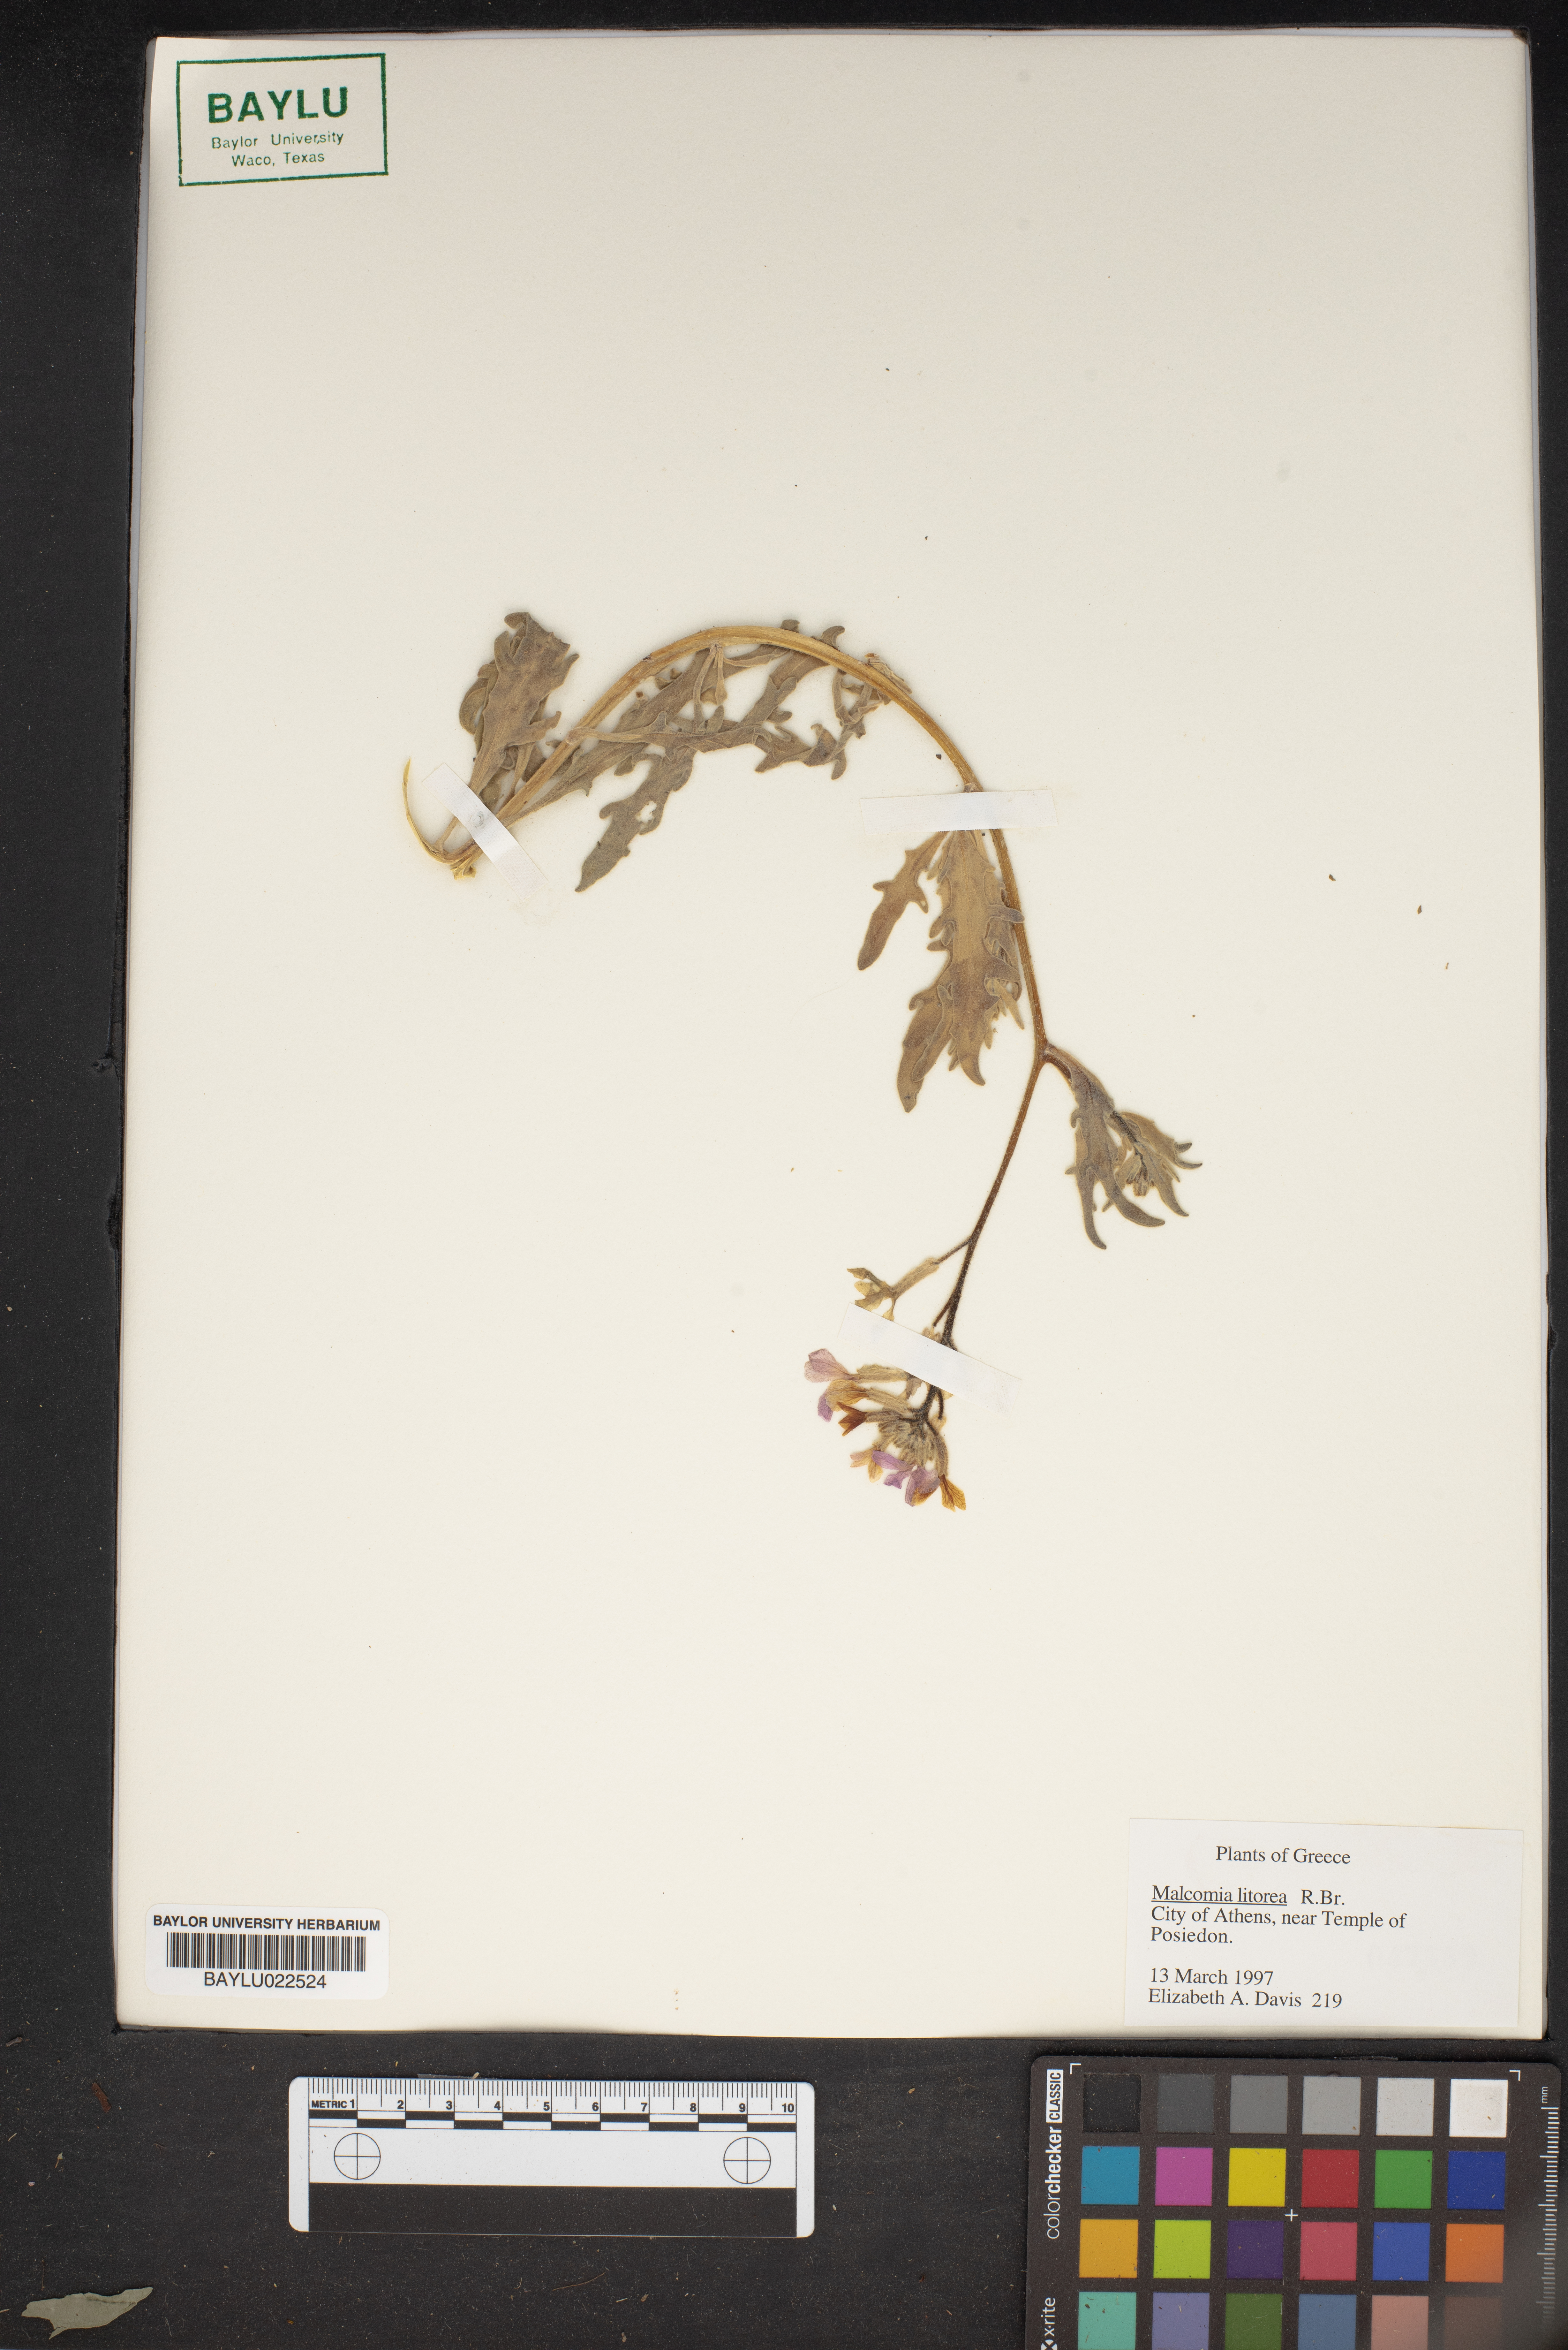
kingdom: Plantae
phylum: Tracheophyta
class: Magnoliopsida
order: Brassicales
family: Brassicaceae
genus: Malcolmia
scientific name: Malcolmia
